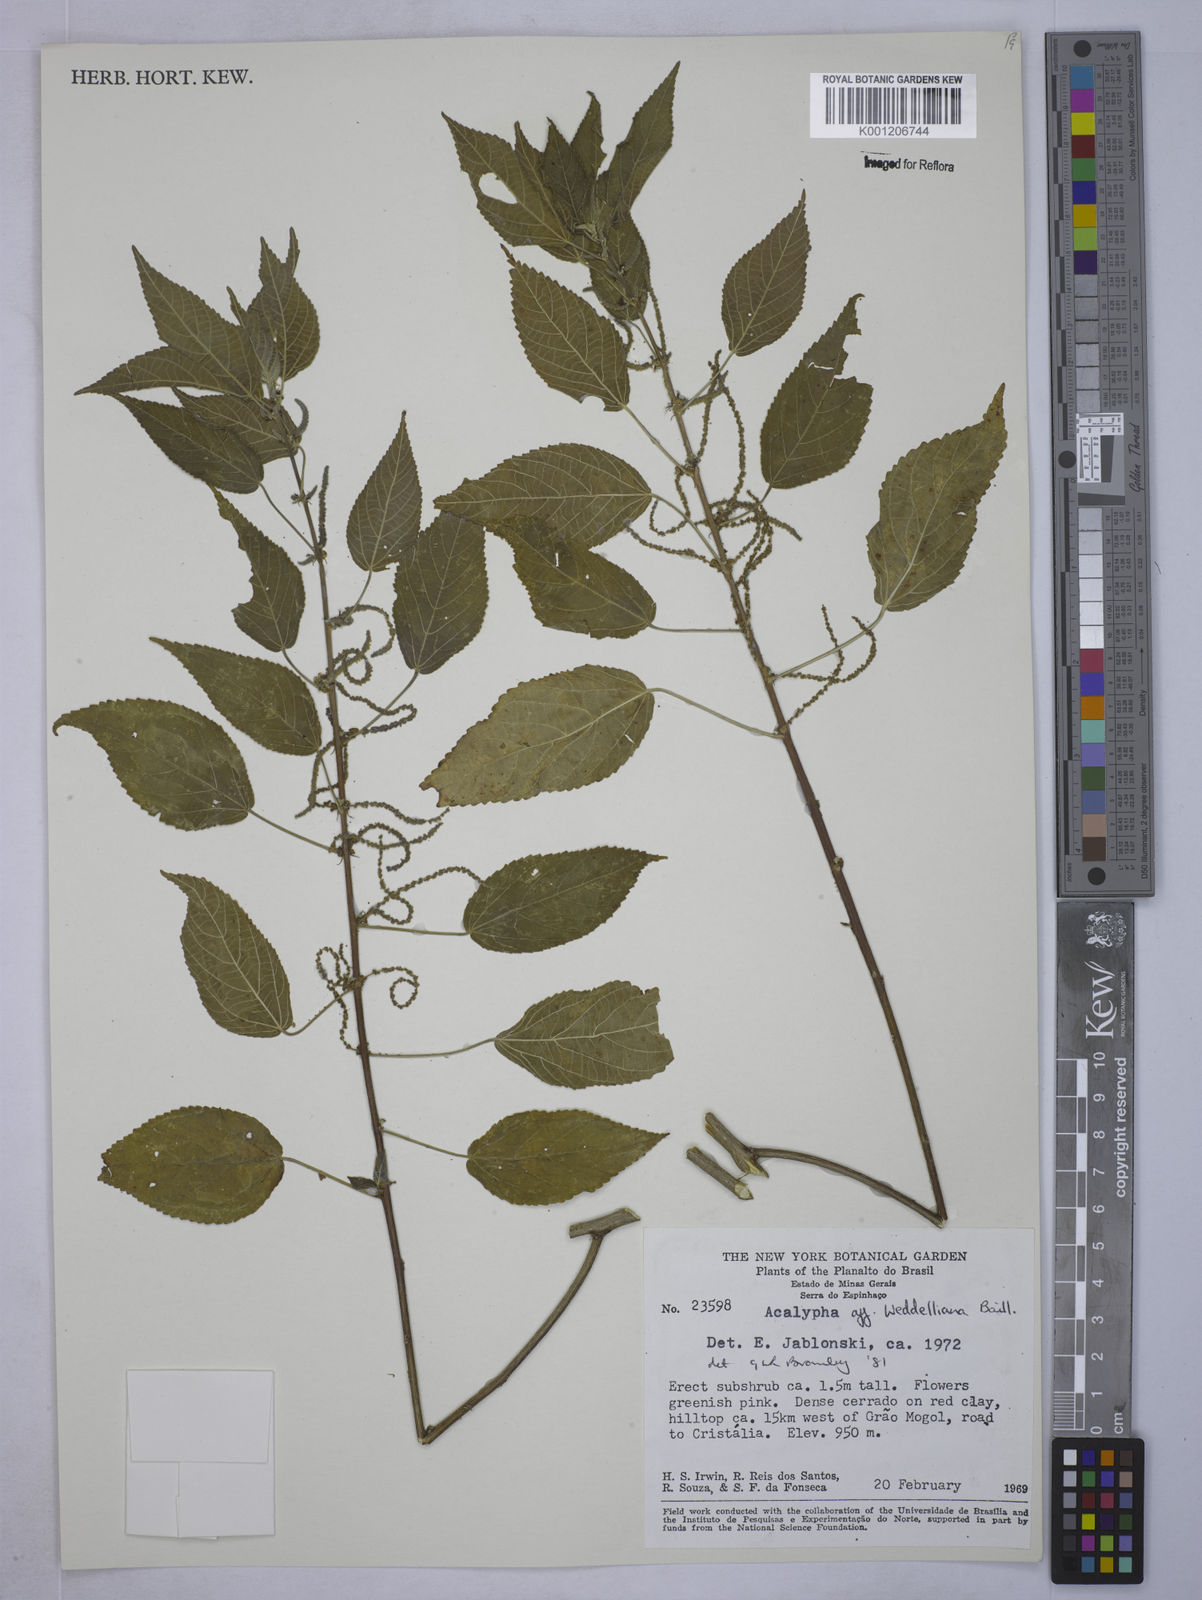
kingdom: Plantae
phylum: Tracheophyta
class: Magnoliopsida
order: Malpighiales
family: Euphorbiaceae
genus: Acalypha
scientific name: Acalypha weddelliana
